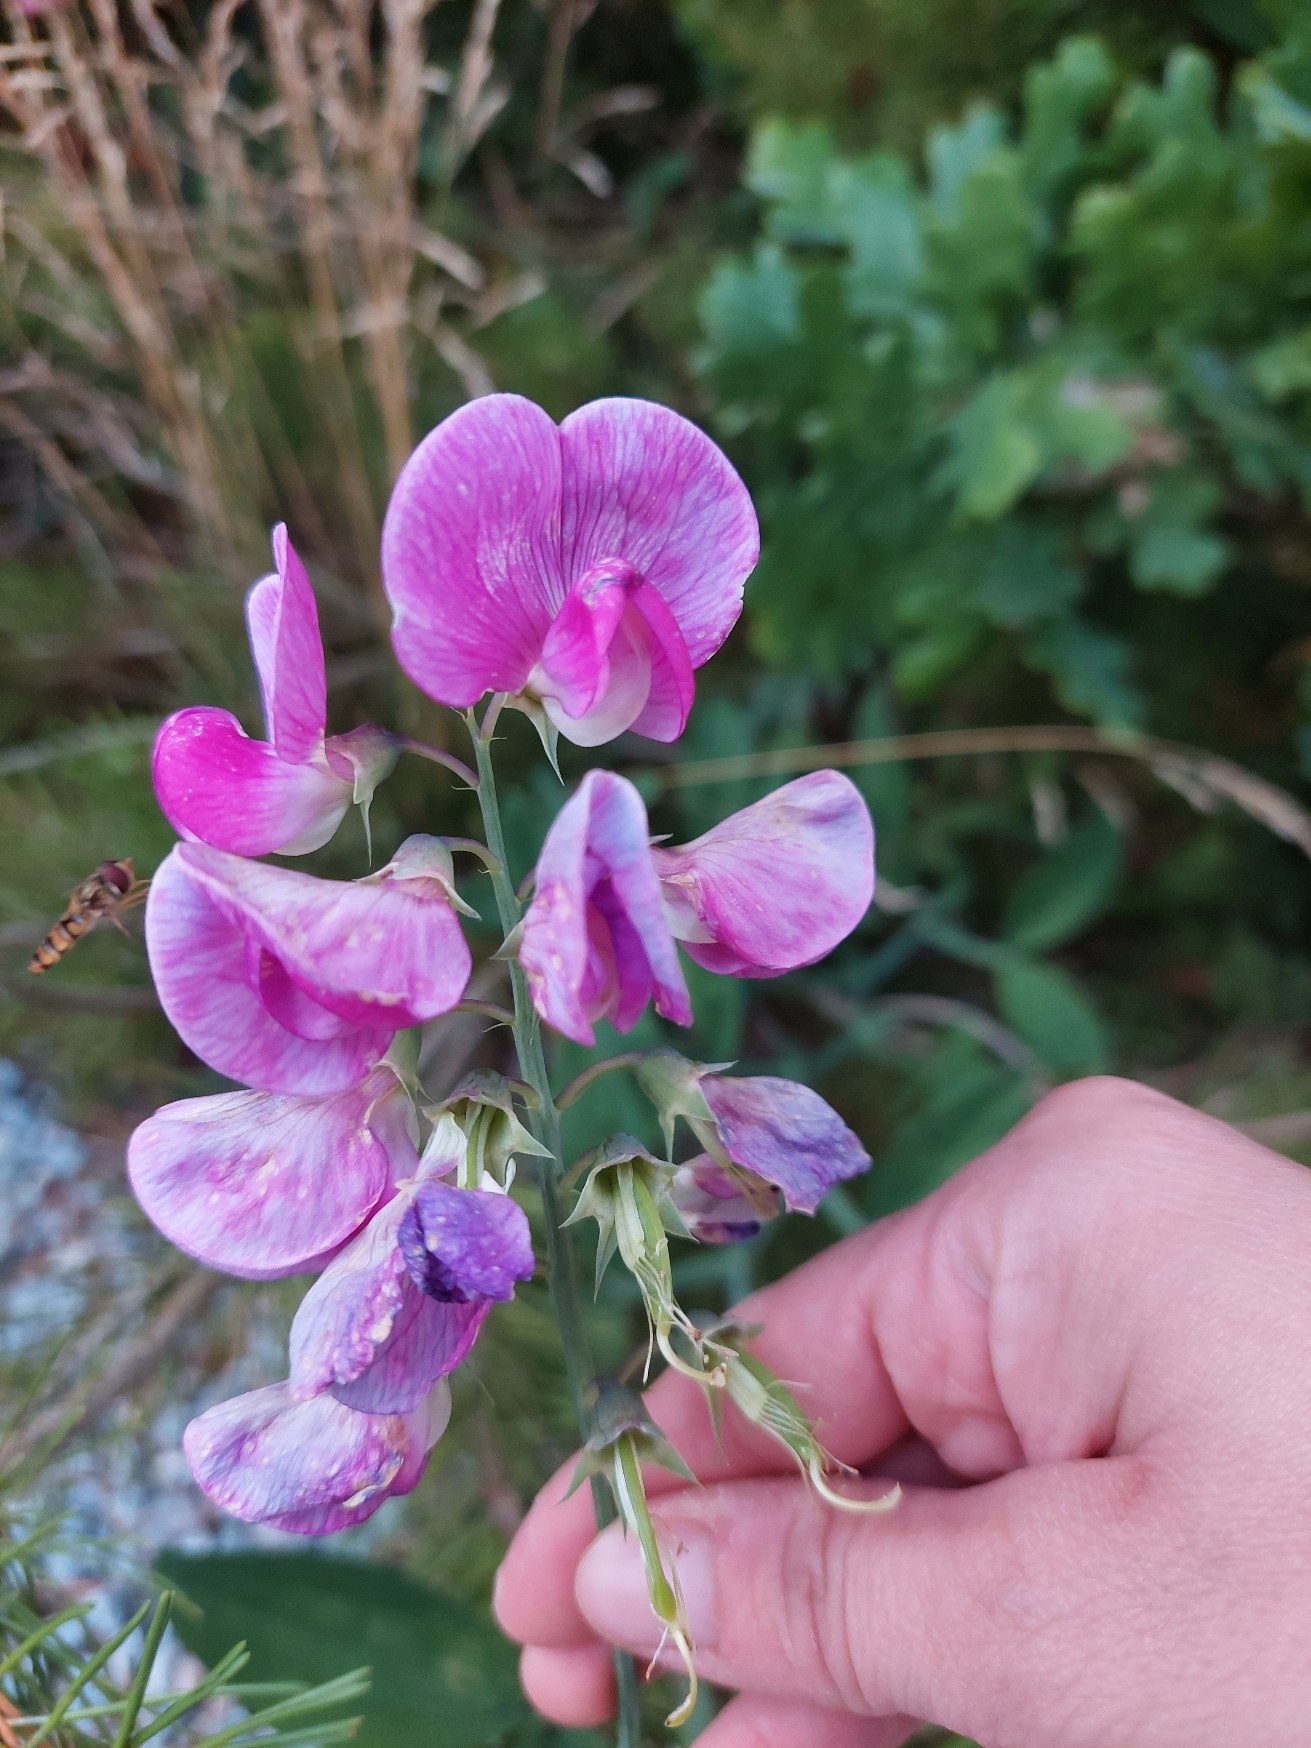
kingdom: Plantae
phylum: Tracheophyta
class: Magnoliopsida
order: Fabales
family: Fabaceae
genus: Lathyrus
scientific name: Lathyrus latifolius
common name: Flerårig ærteblomst
